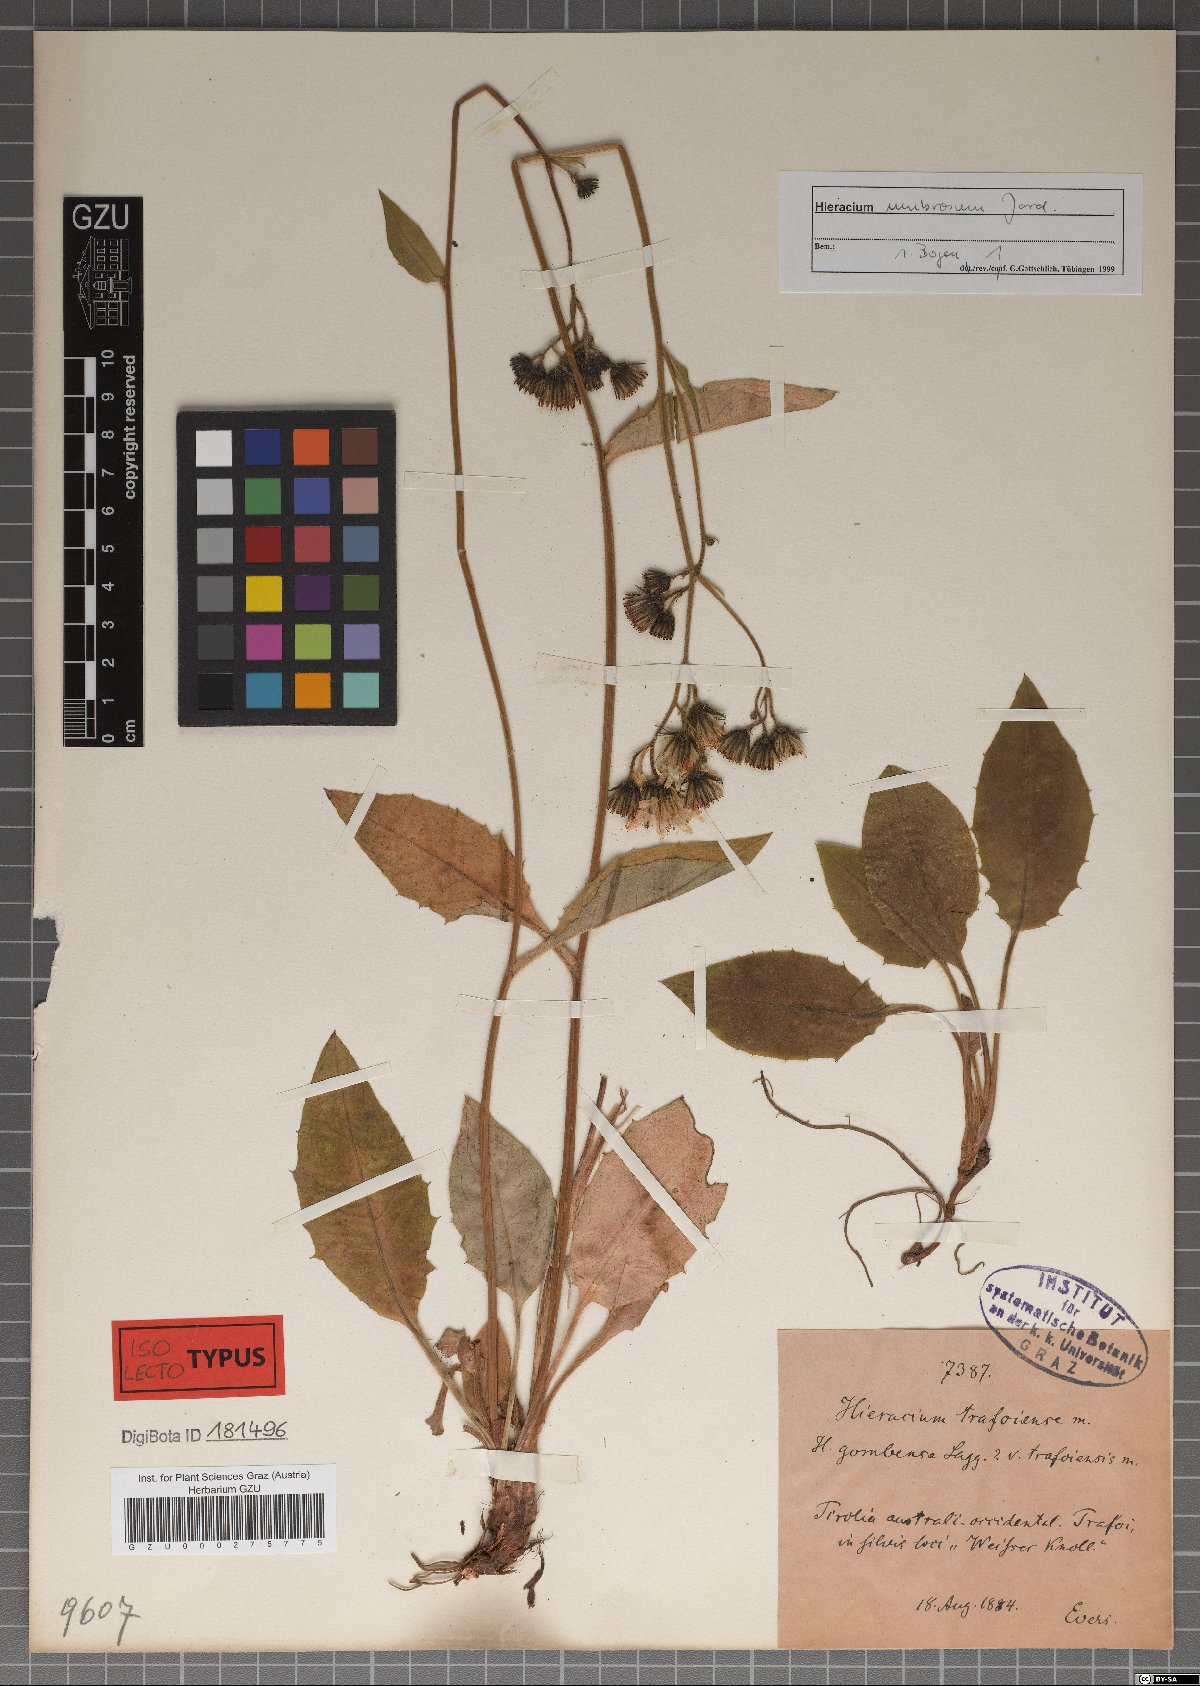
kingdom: Plantae
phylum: Tracheophyta
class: Magnoliopsida
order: Asterales
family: Asteraceae
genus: Hieracium
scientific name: Hieracium trafoiense
